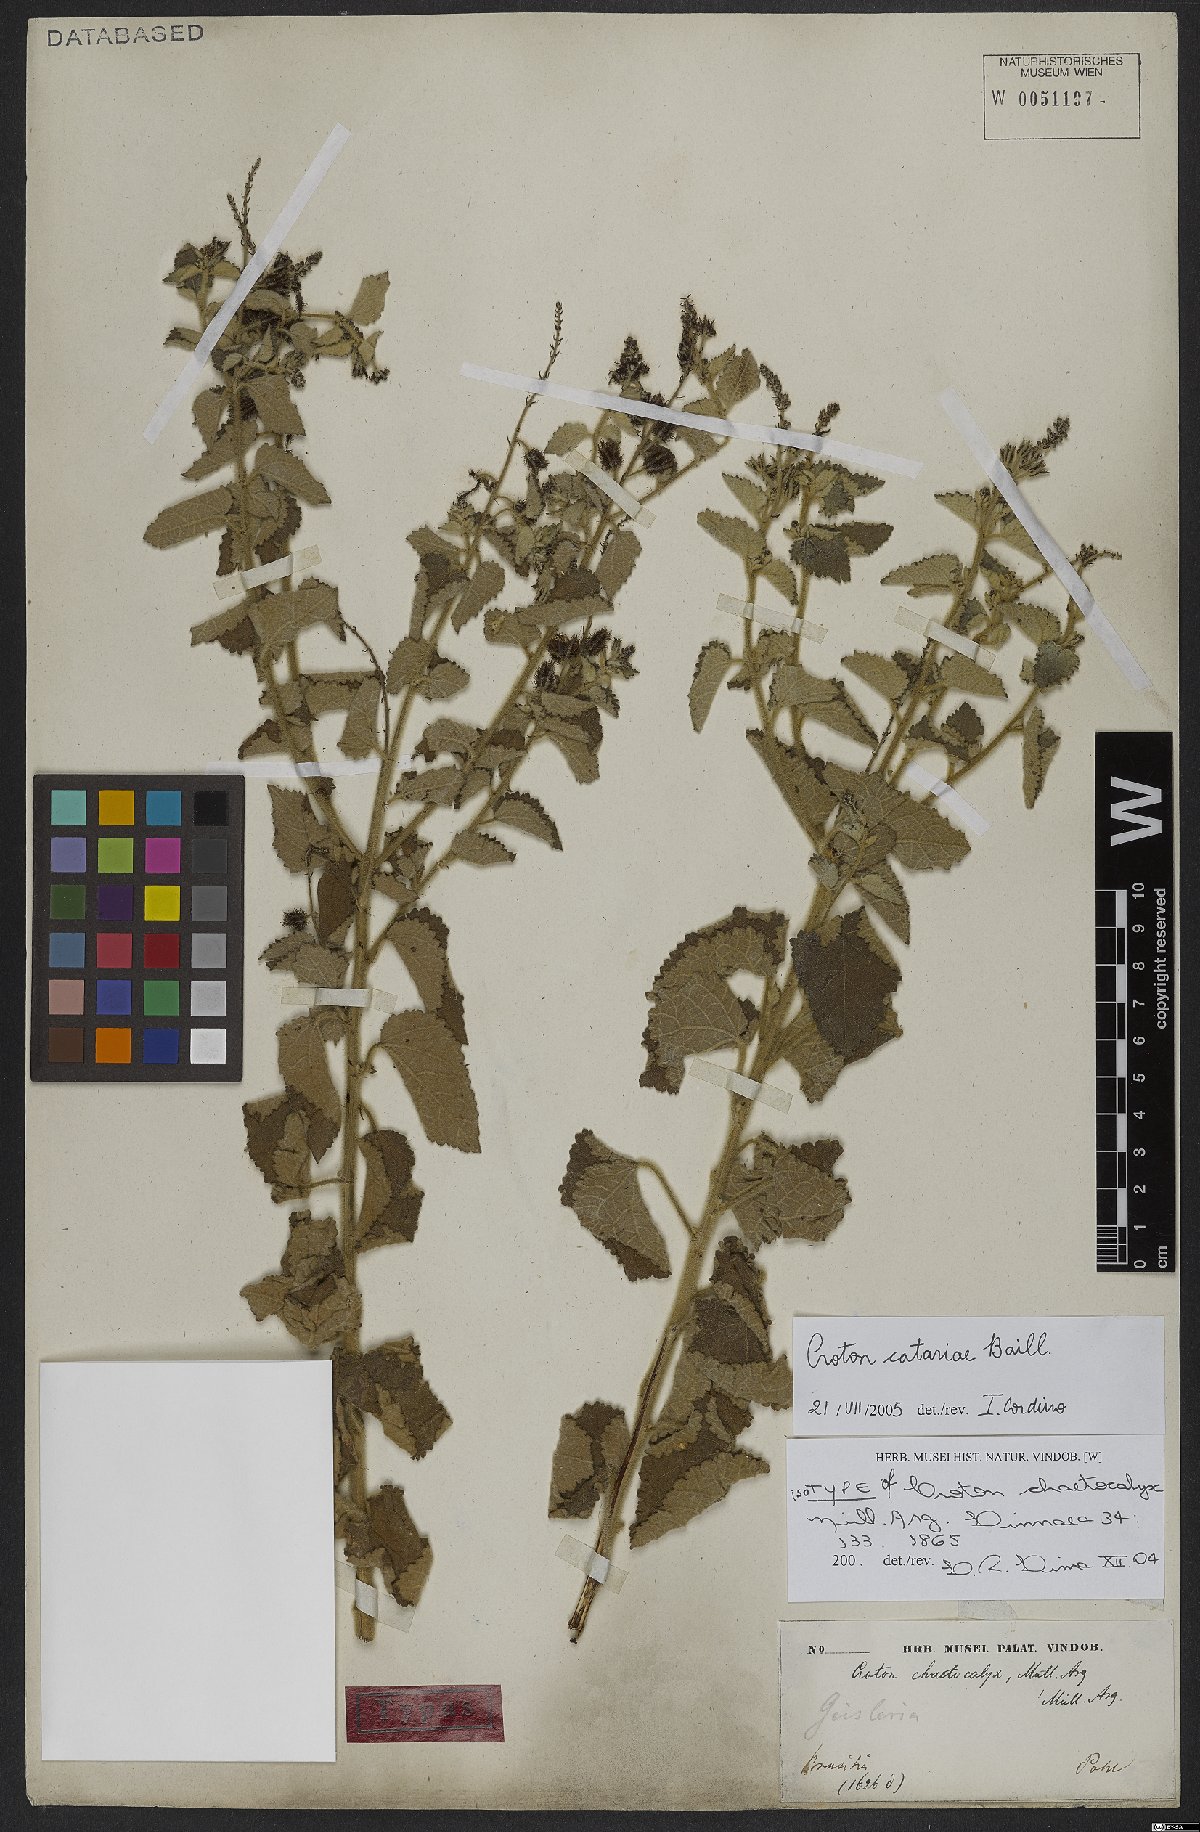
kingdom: Plantae
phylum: Tracheophyta
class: Magnoliopsida
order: Malpighiales
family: Euphorbiaceae
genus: Croton
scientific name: Croton catariae
